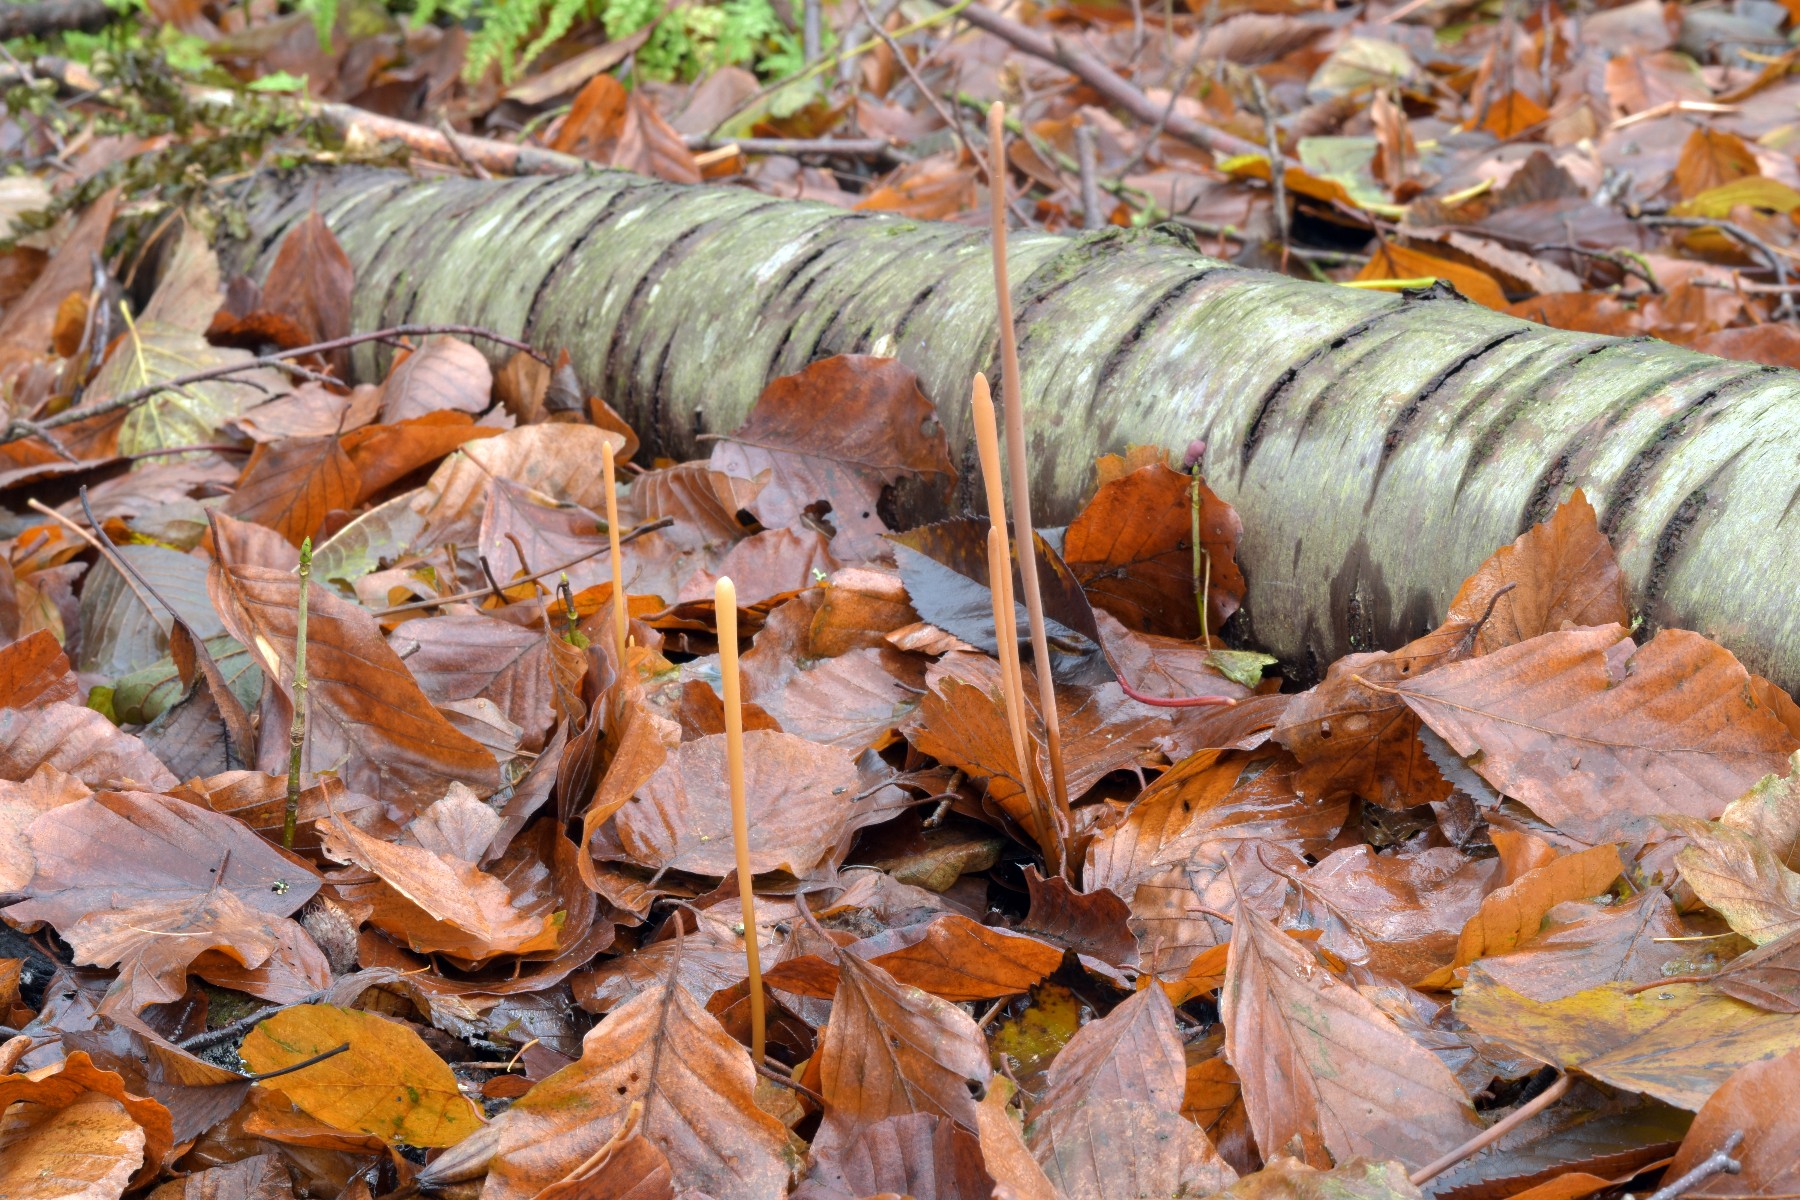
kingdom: Fungi
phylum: Basidiomycota
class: Agaricomycetes
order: Agaricales
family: Typhulaceae
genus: Typhula
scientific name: Typhula fistulosa
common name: pibet rørkølle
